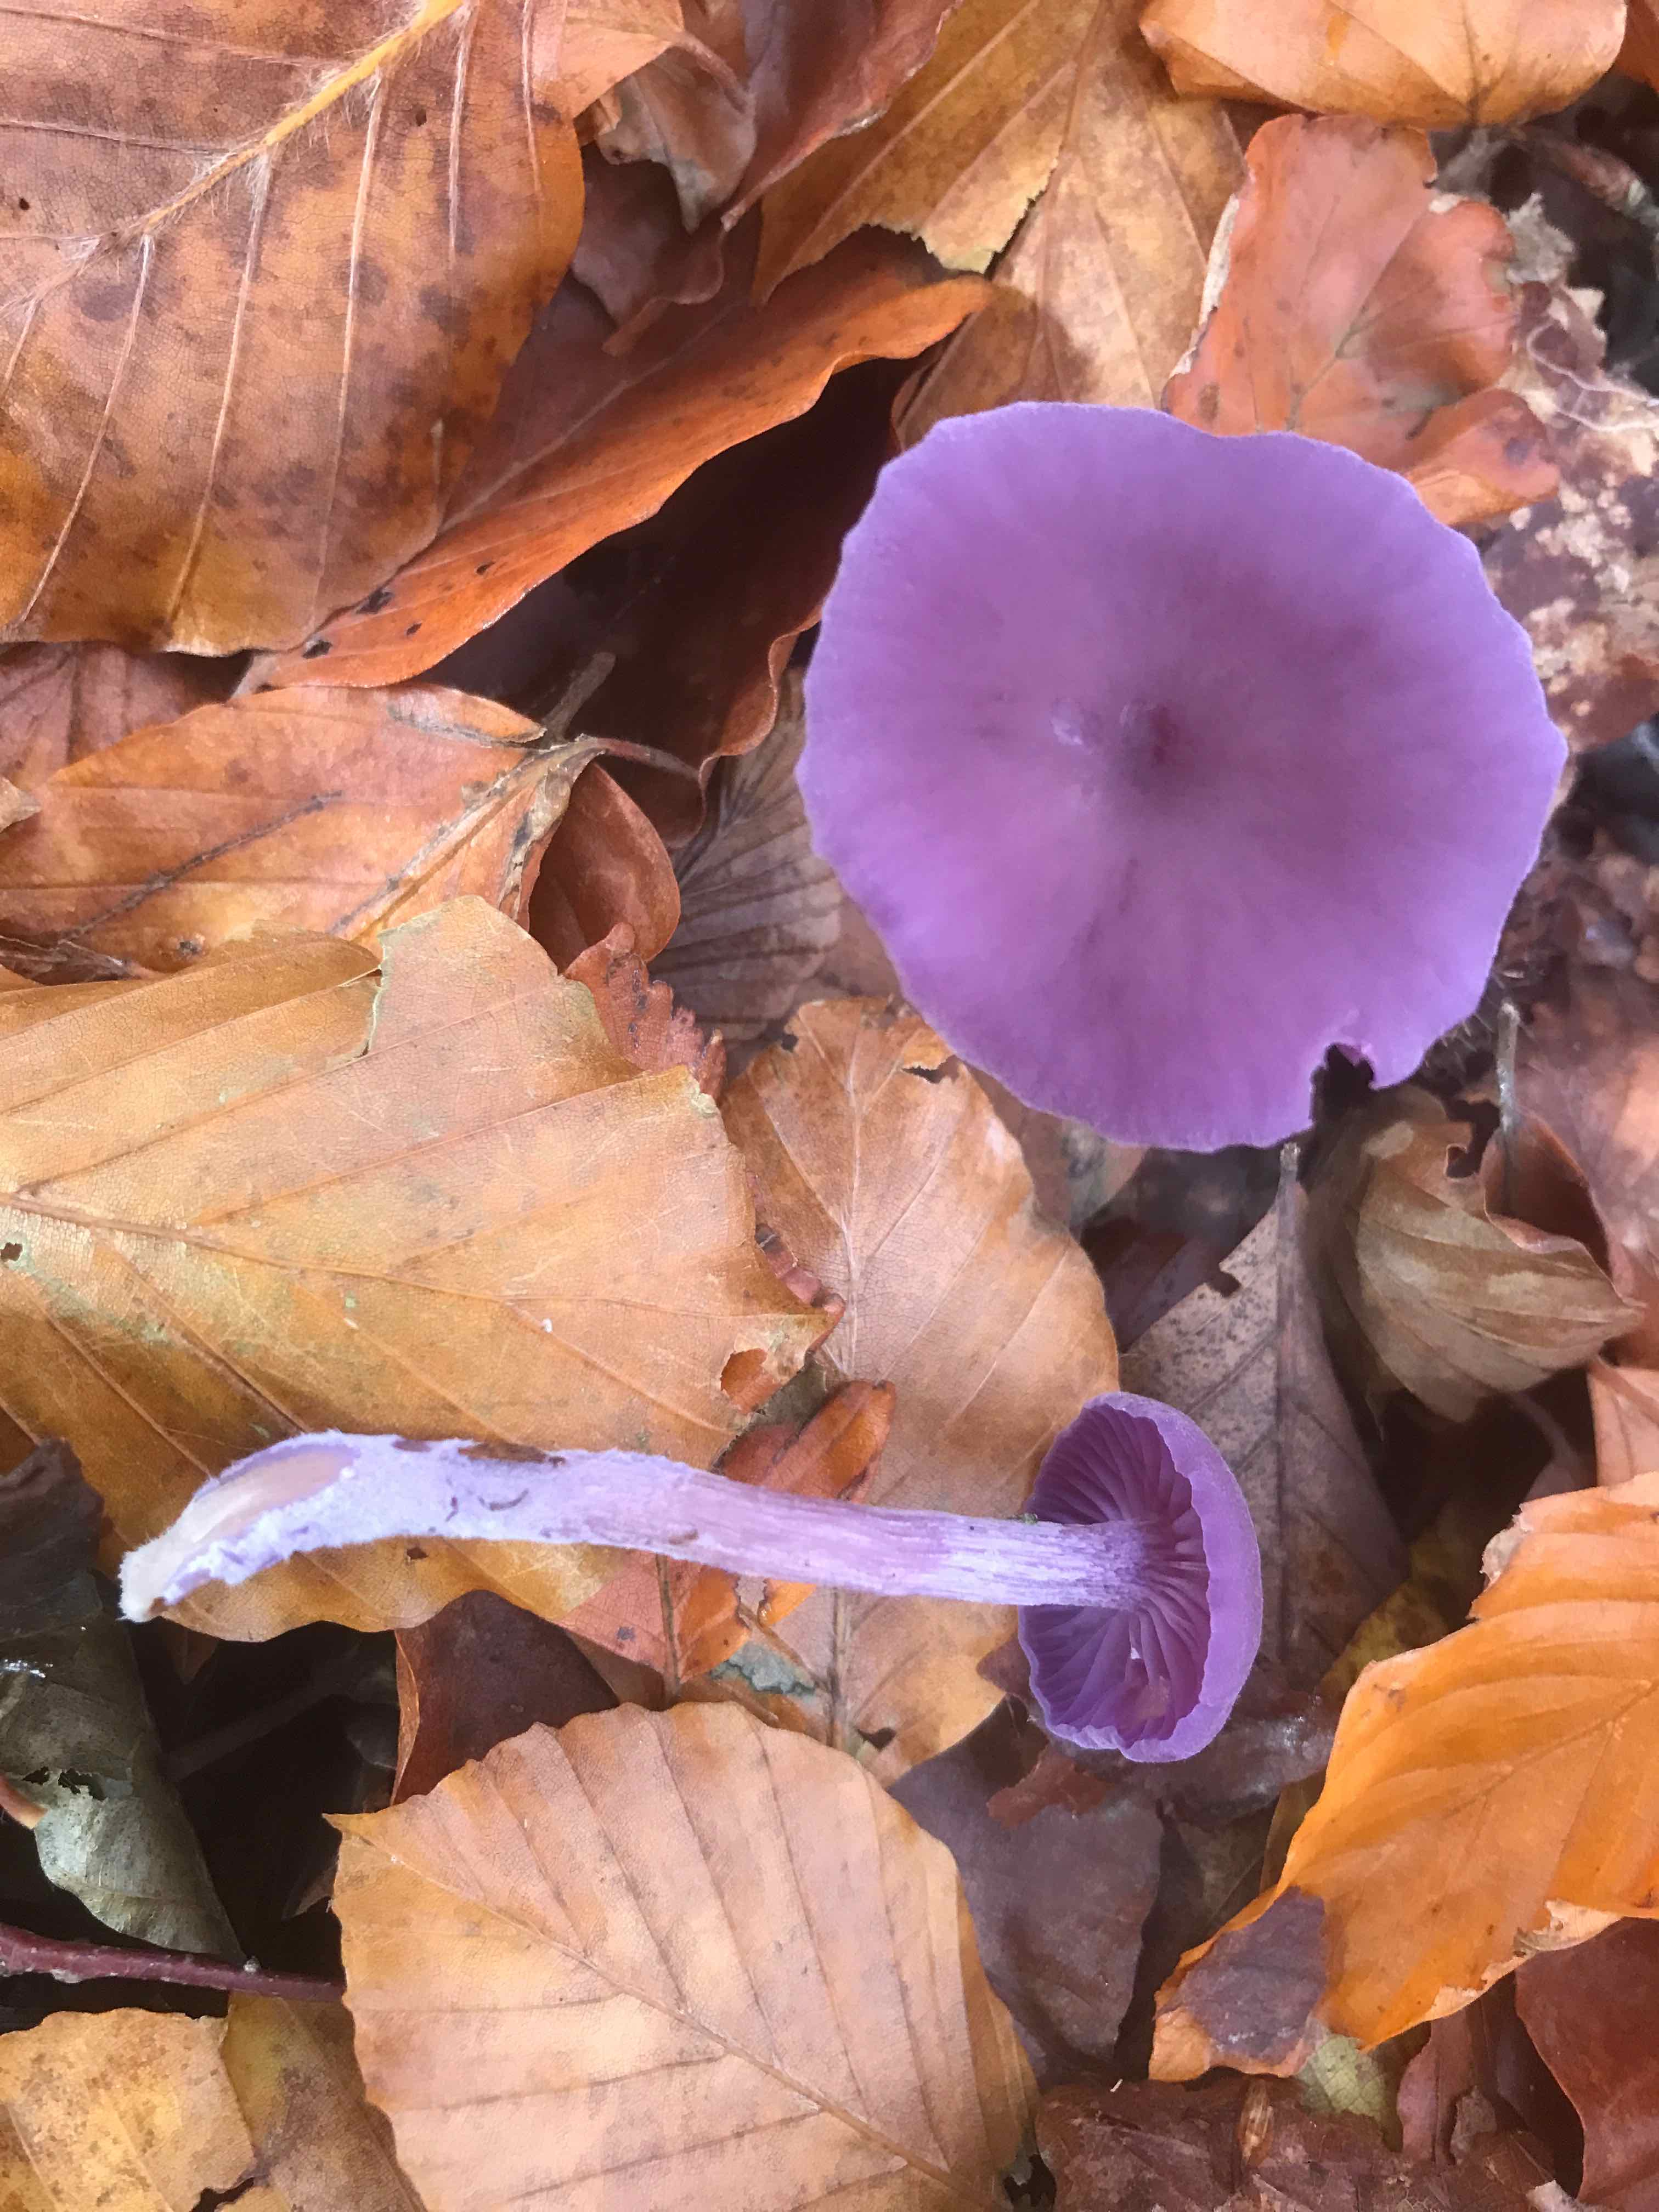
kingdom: Fungi
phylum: Basidiomycota
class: Agaricomycetes
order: Agaricales
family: Hydnangiaceae
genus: Laccaria
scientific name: Laccaria amethystina
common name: violet ametysthat
